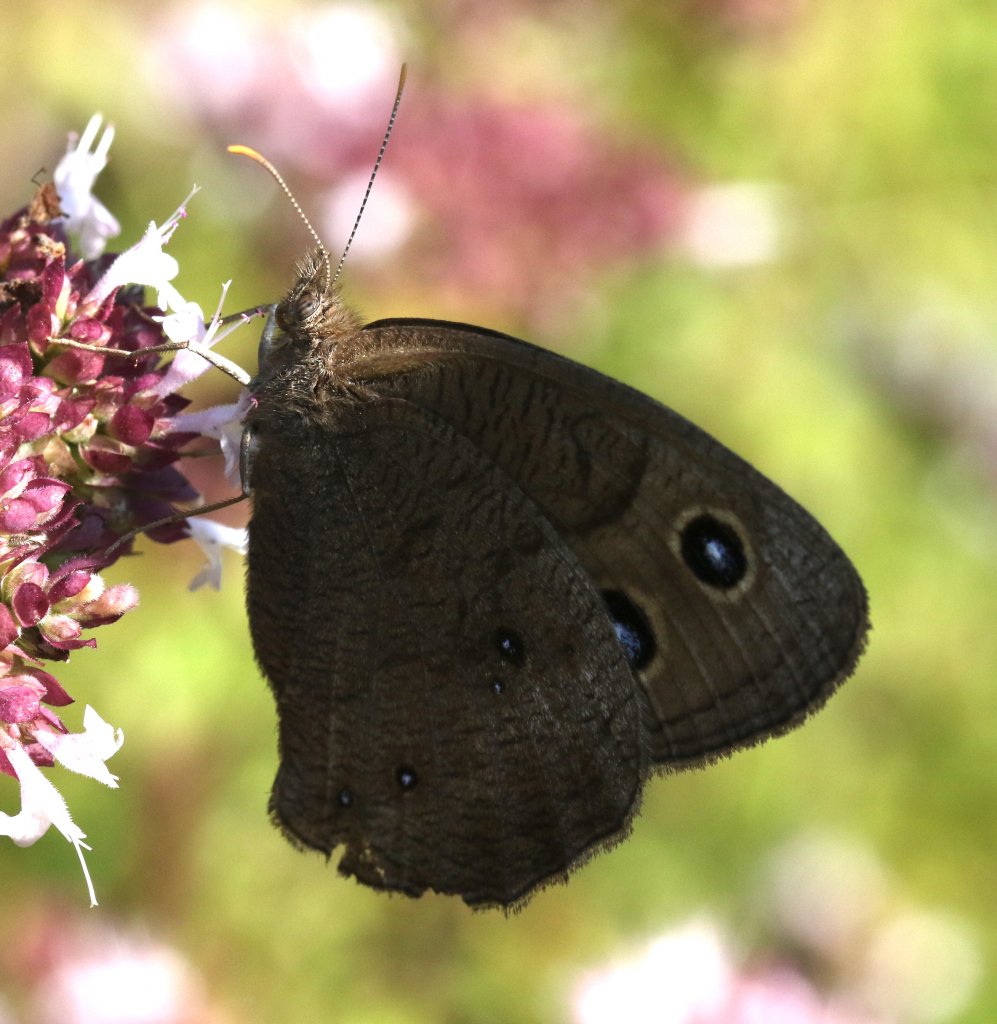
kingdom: Animalia
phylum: Arthropoda
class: Insecta
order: Lepidoptera
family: Nymphalidae
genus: Cercyonis
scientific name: Cercyonis pegala
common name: Common Wood-Nymph
